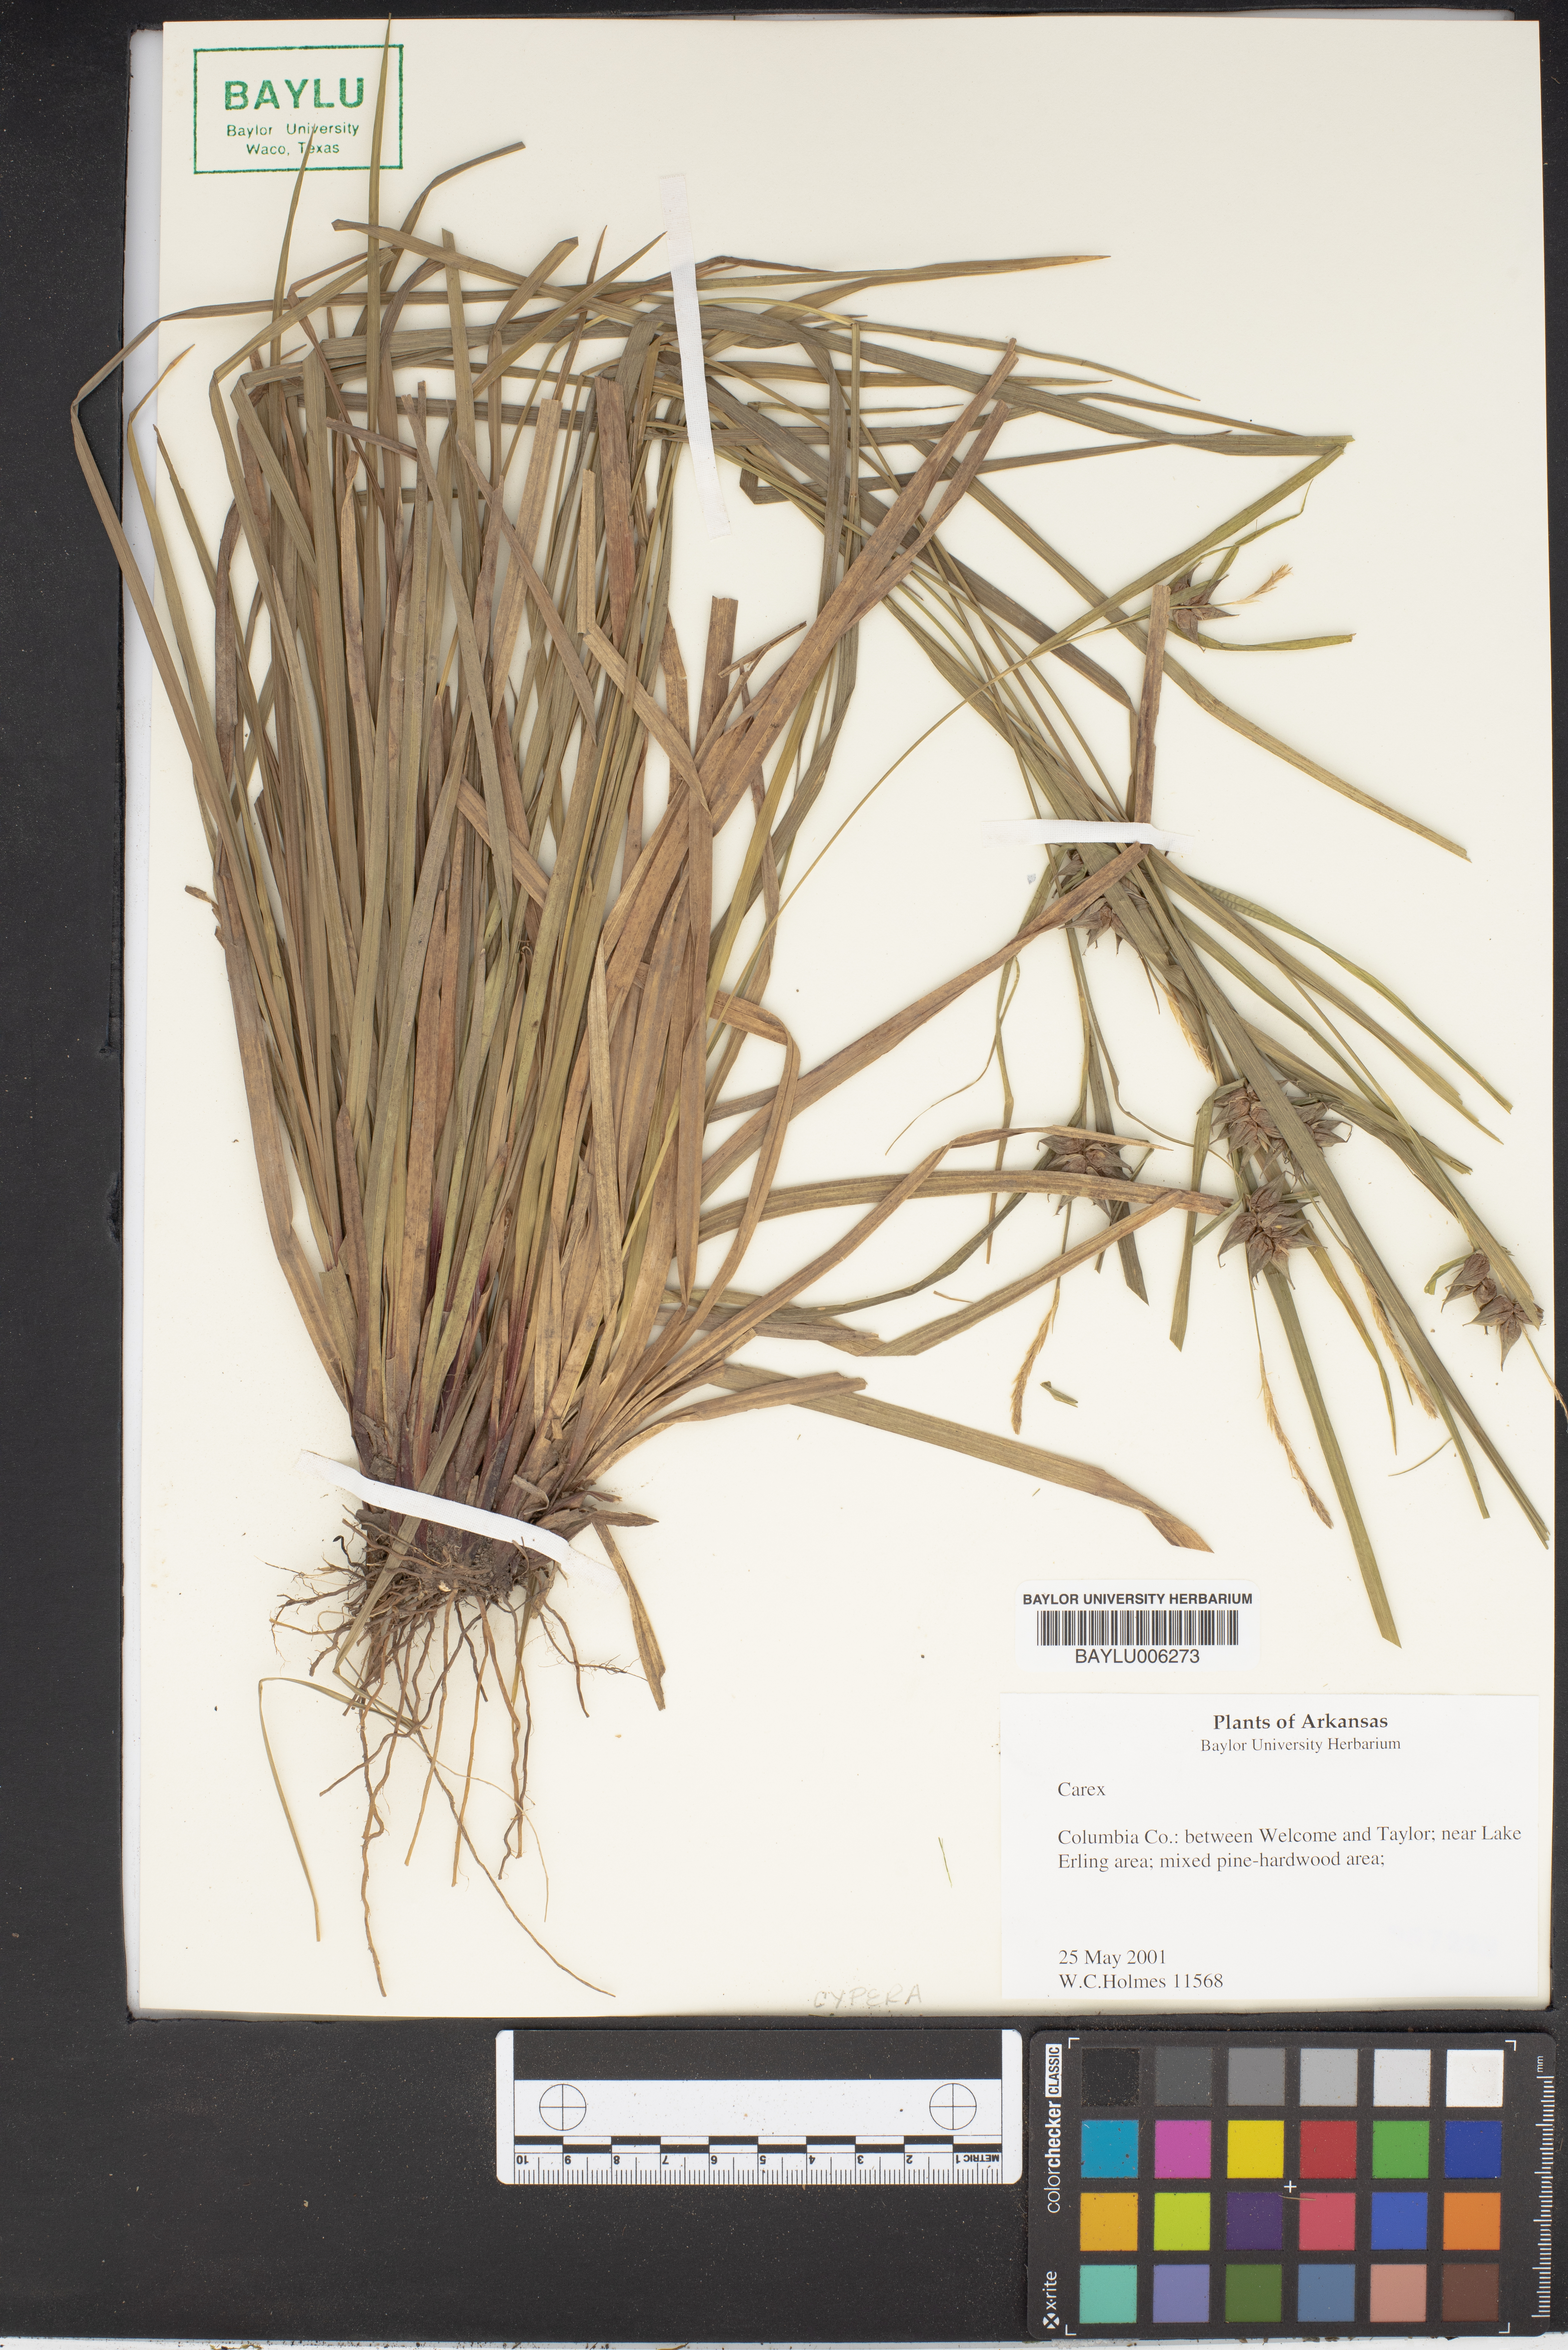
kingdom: Plantae
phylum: Tracheophyta
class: Liliopsida
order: Poales
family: Cyperaceae
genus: Carex
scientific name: Carex
